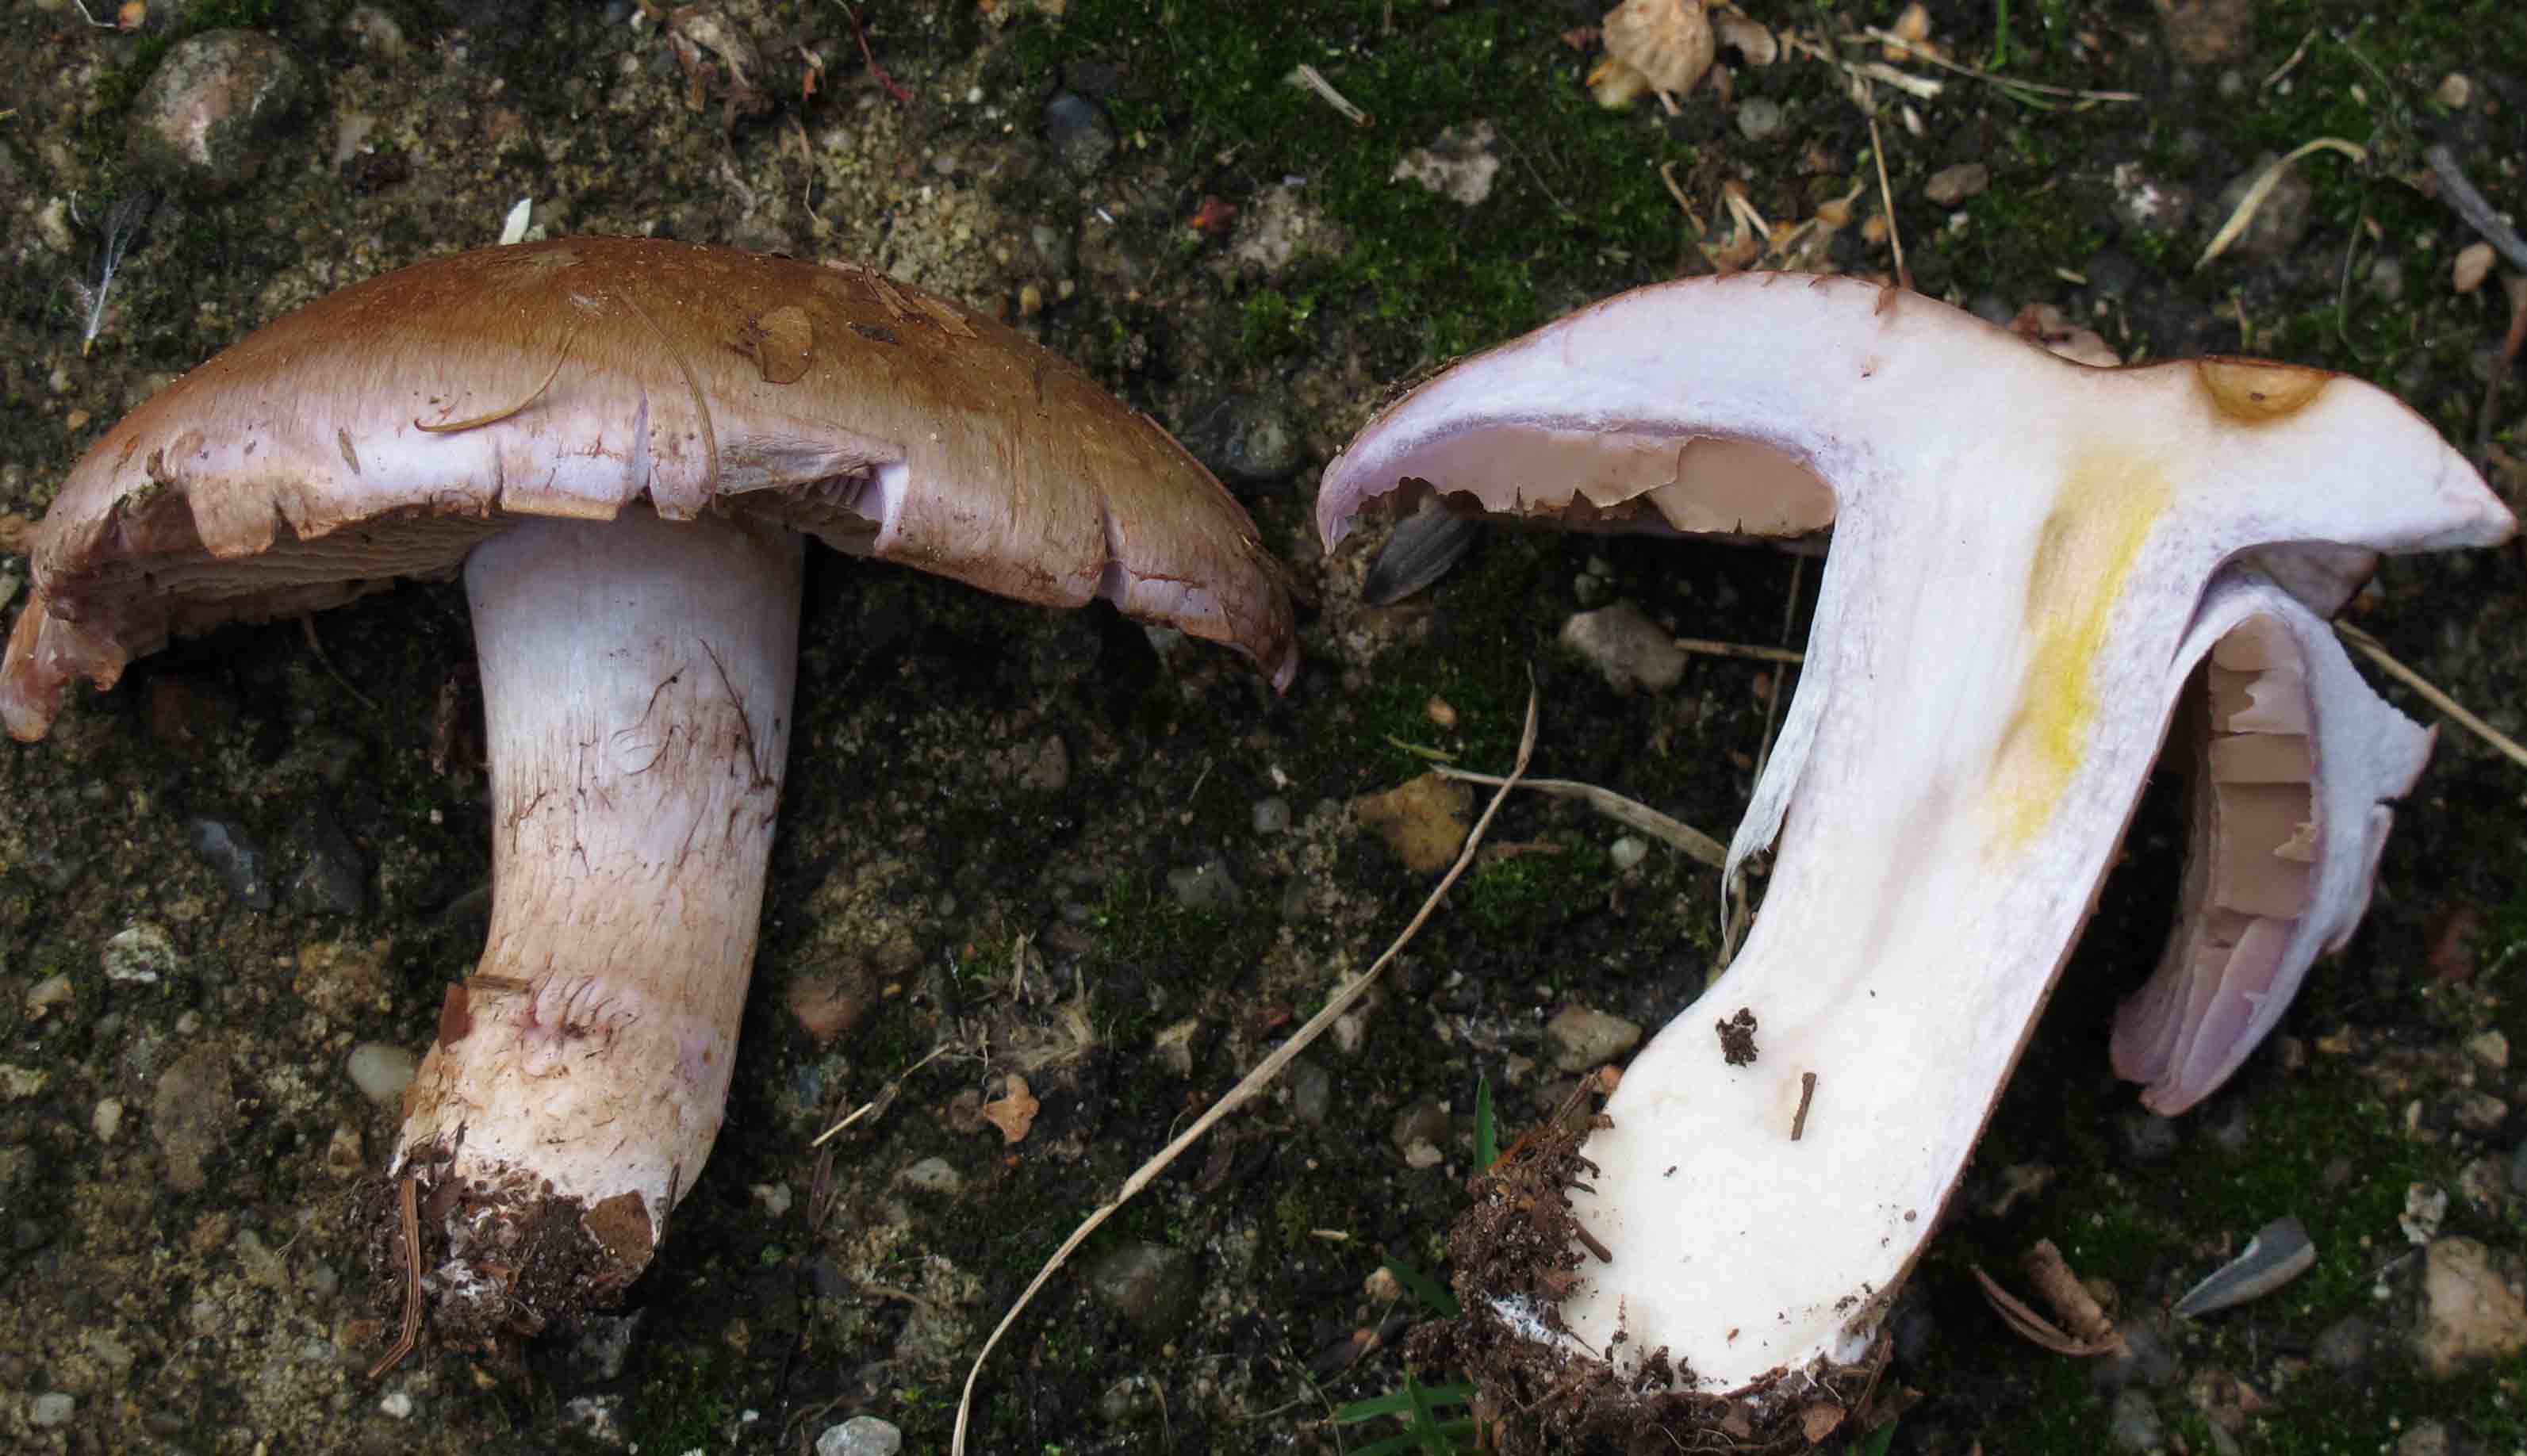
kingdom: Fungi
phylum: Basidiomycota
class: Agaricomycetes
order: Agaricales
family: Cortinariaceae
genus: Cortinarius
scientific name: Cortinarius largus
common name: violetrandet slørhat
